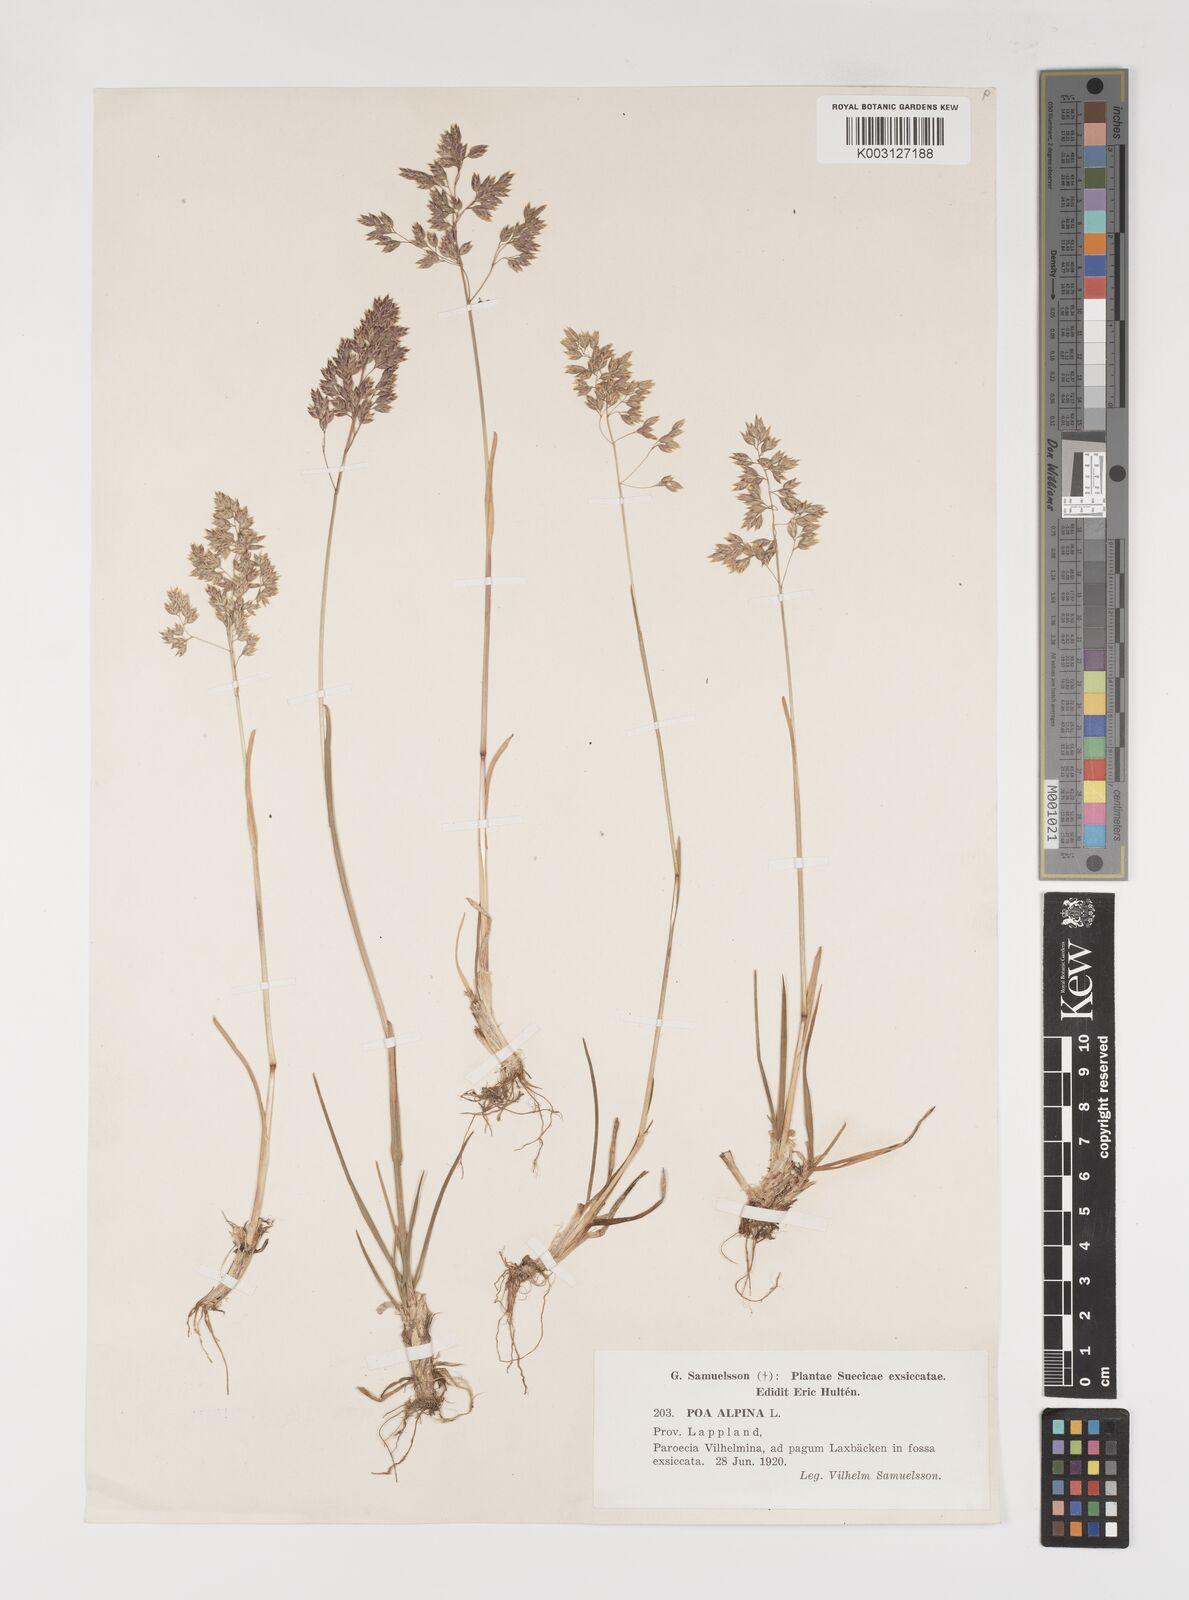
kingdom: Plantae
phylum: Tracheophyta
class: Liliopsida
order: Poales
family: Poaceae
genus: Poa
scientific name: Poa alpina
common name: Alpine bluegrass
